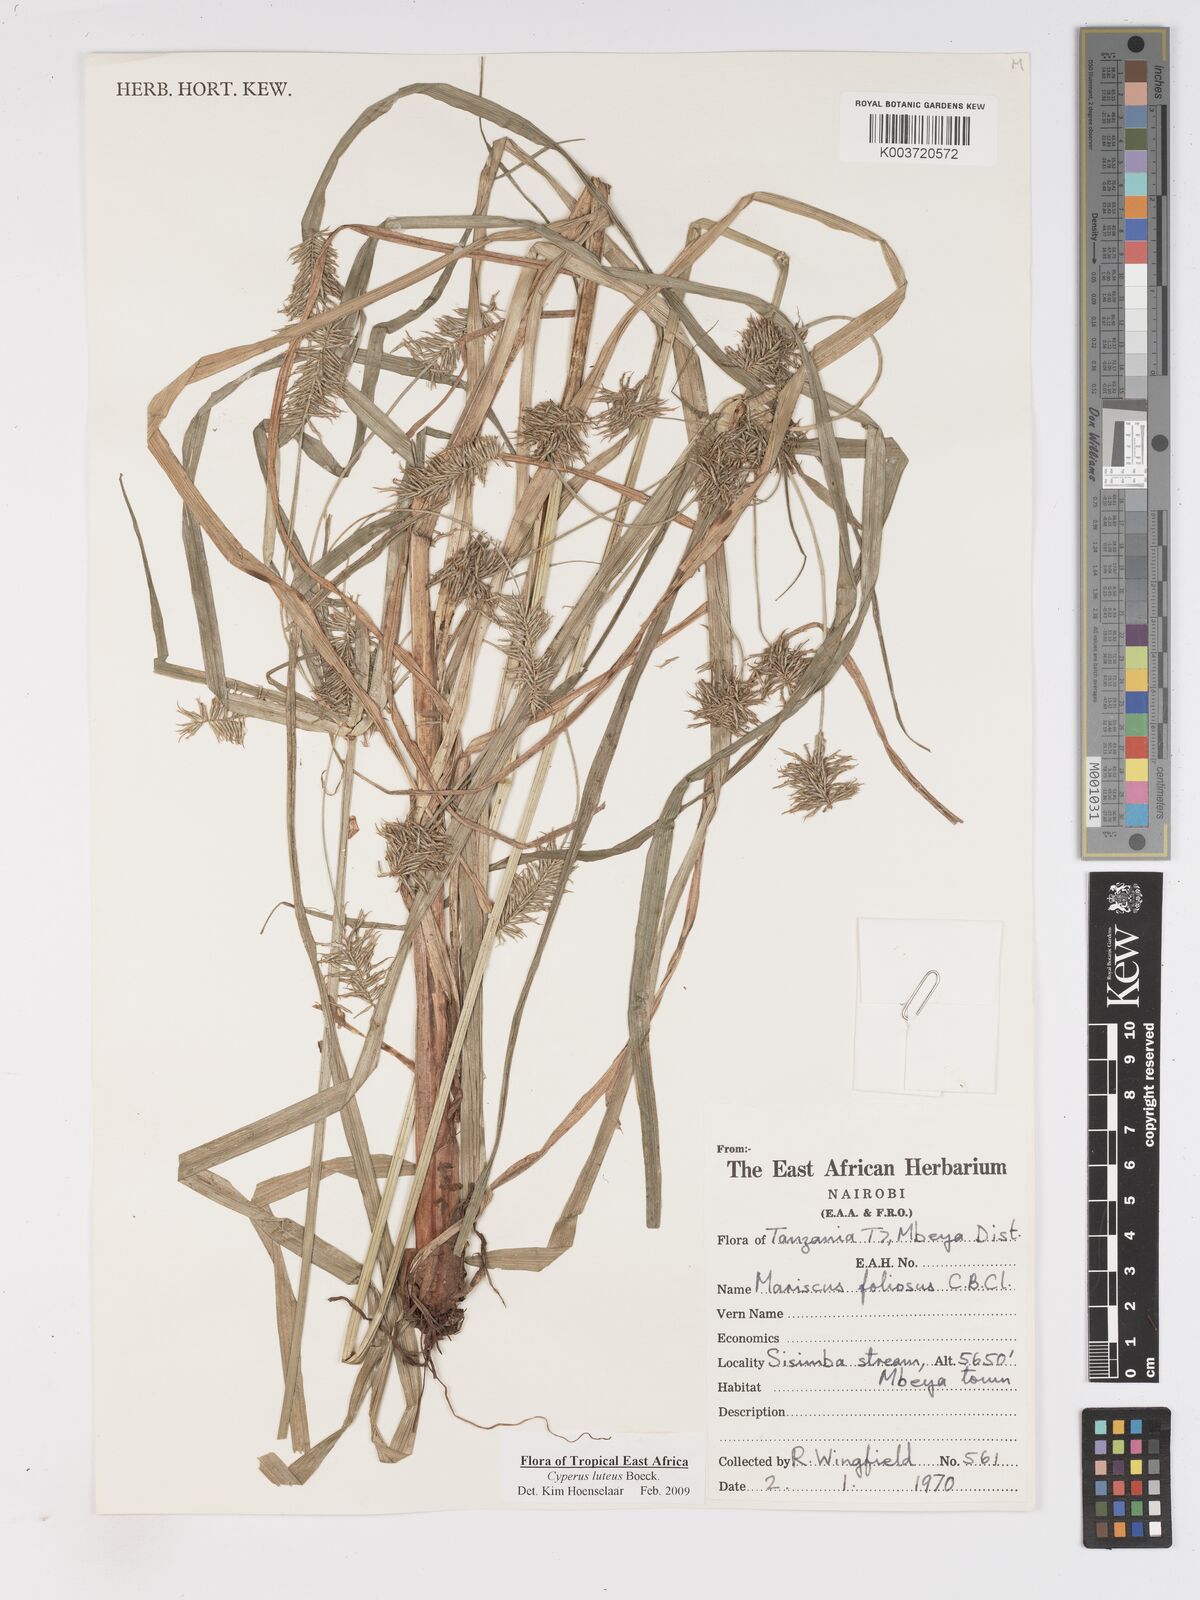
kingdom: Plantae
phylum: Tracheophyta
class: Liliopsida
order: Poales
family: Cyperaceae
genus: Cyperus
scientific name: Cyperus luteus
